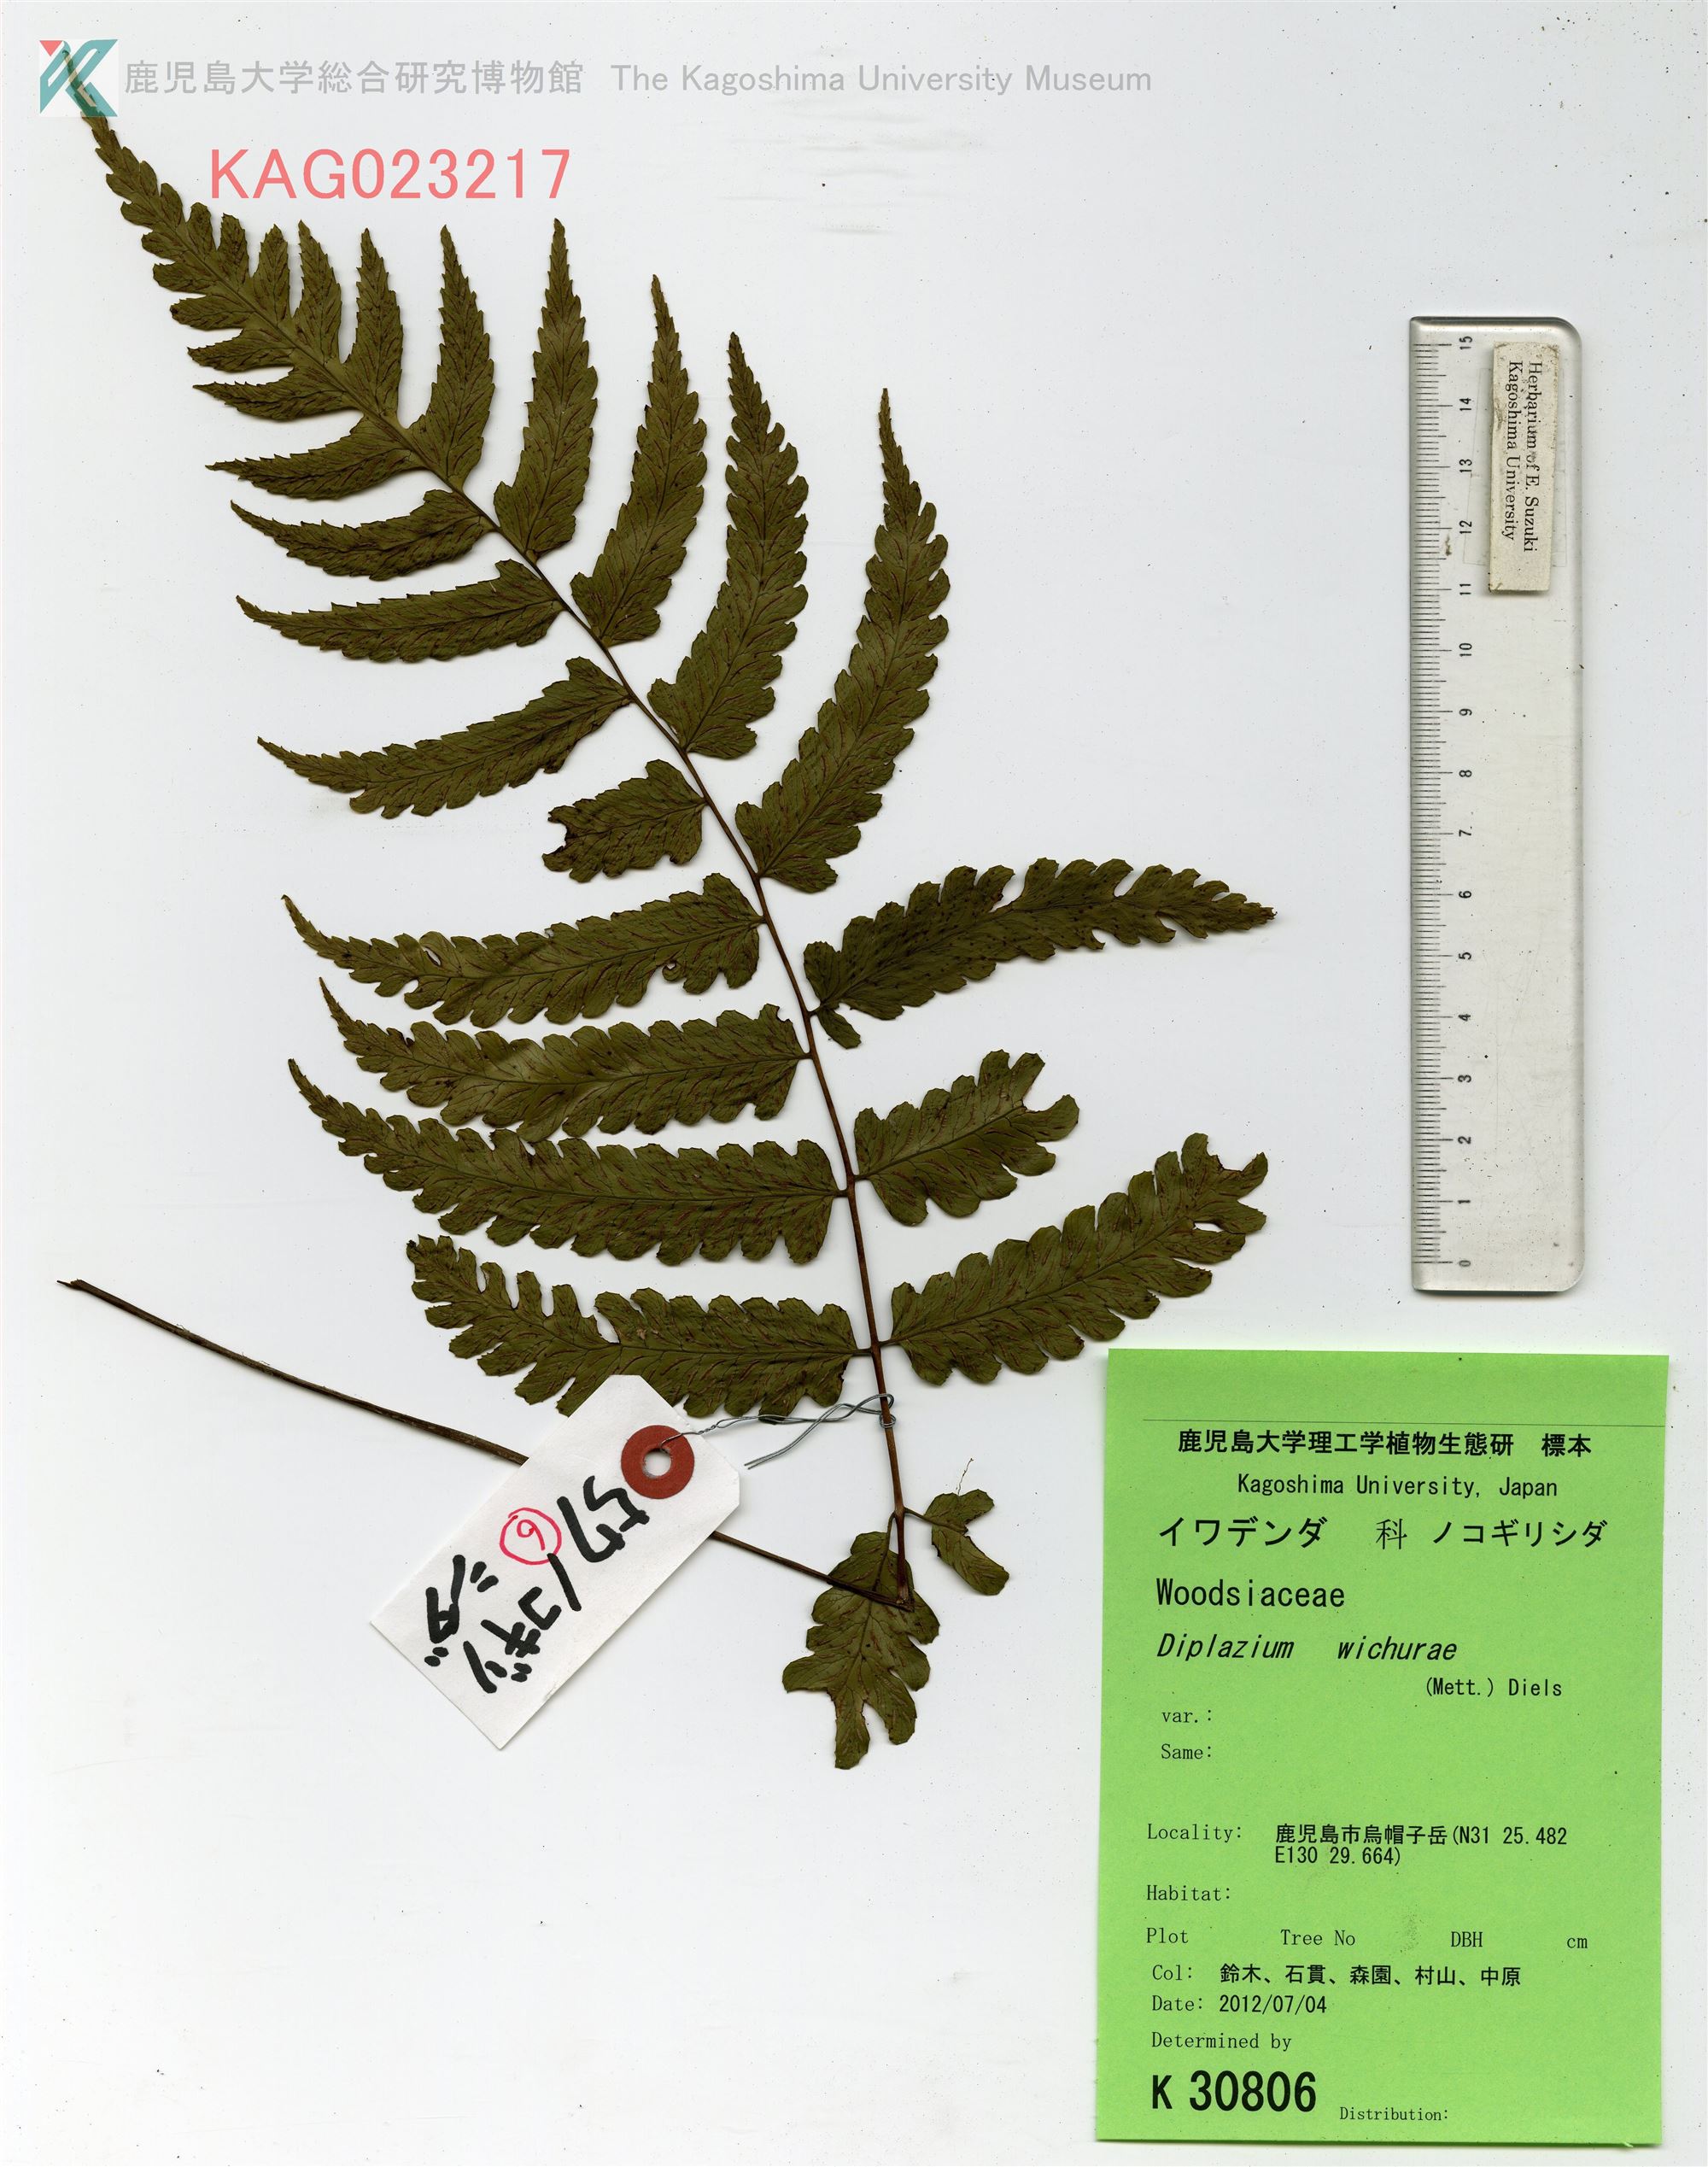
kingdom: Plantae
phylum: Tracheophyta
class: Polypodiopsida
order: Polypodiales
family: Athyriaceae
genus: Diplazium
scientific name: Diplazium mettenianum
